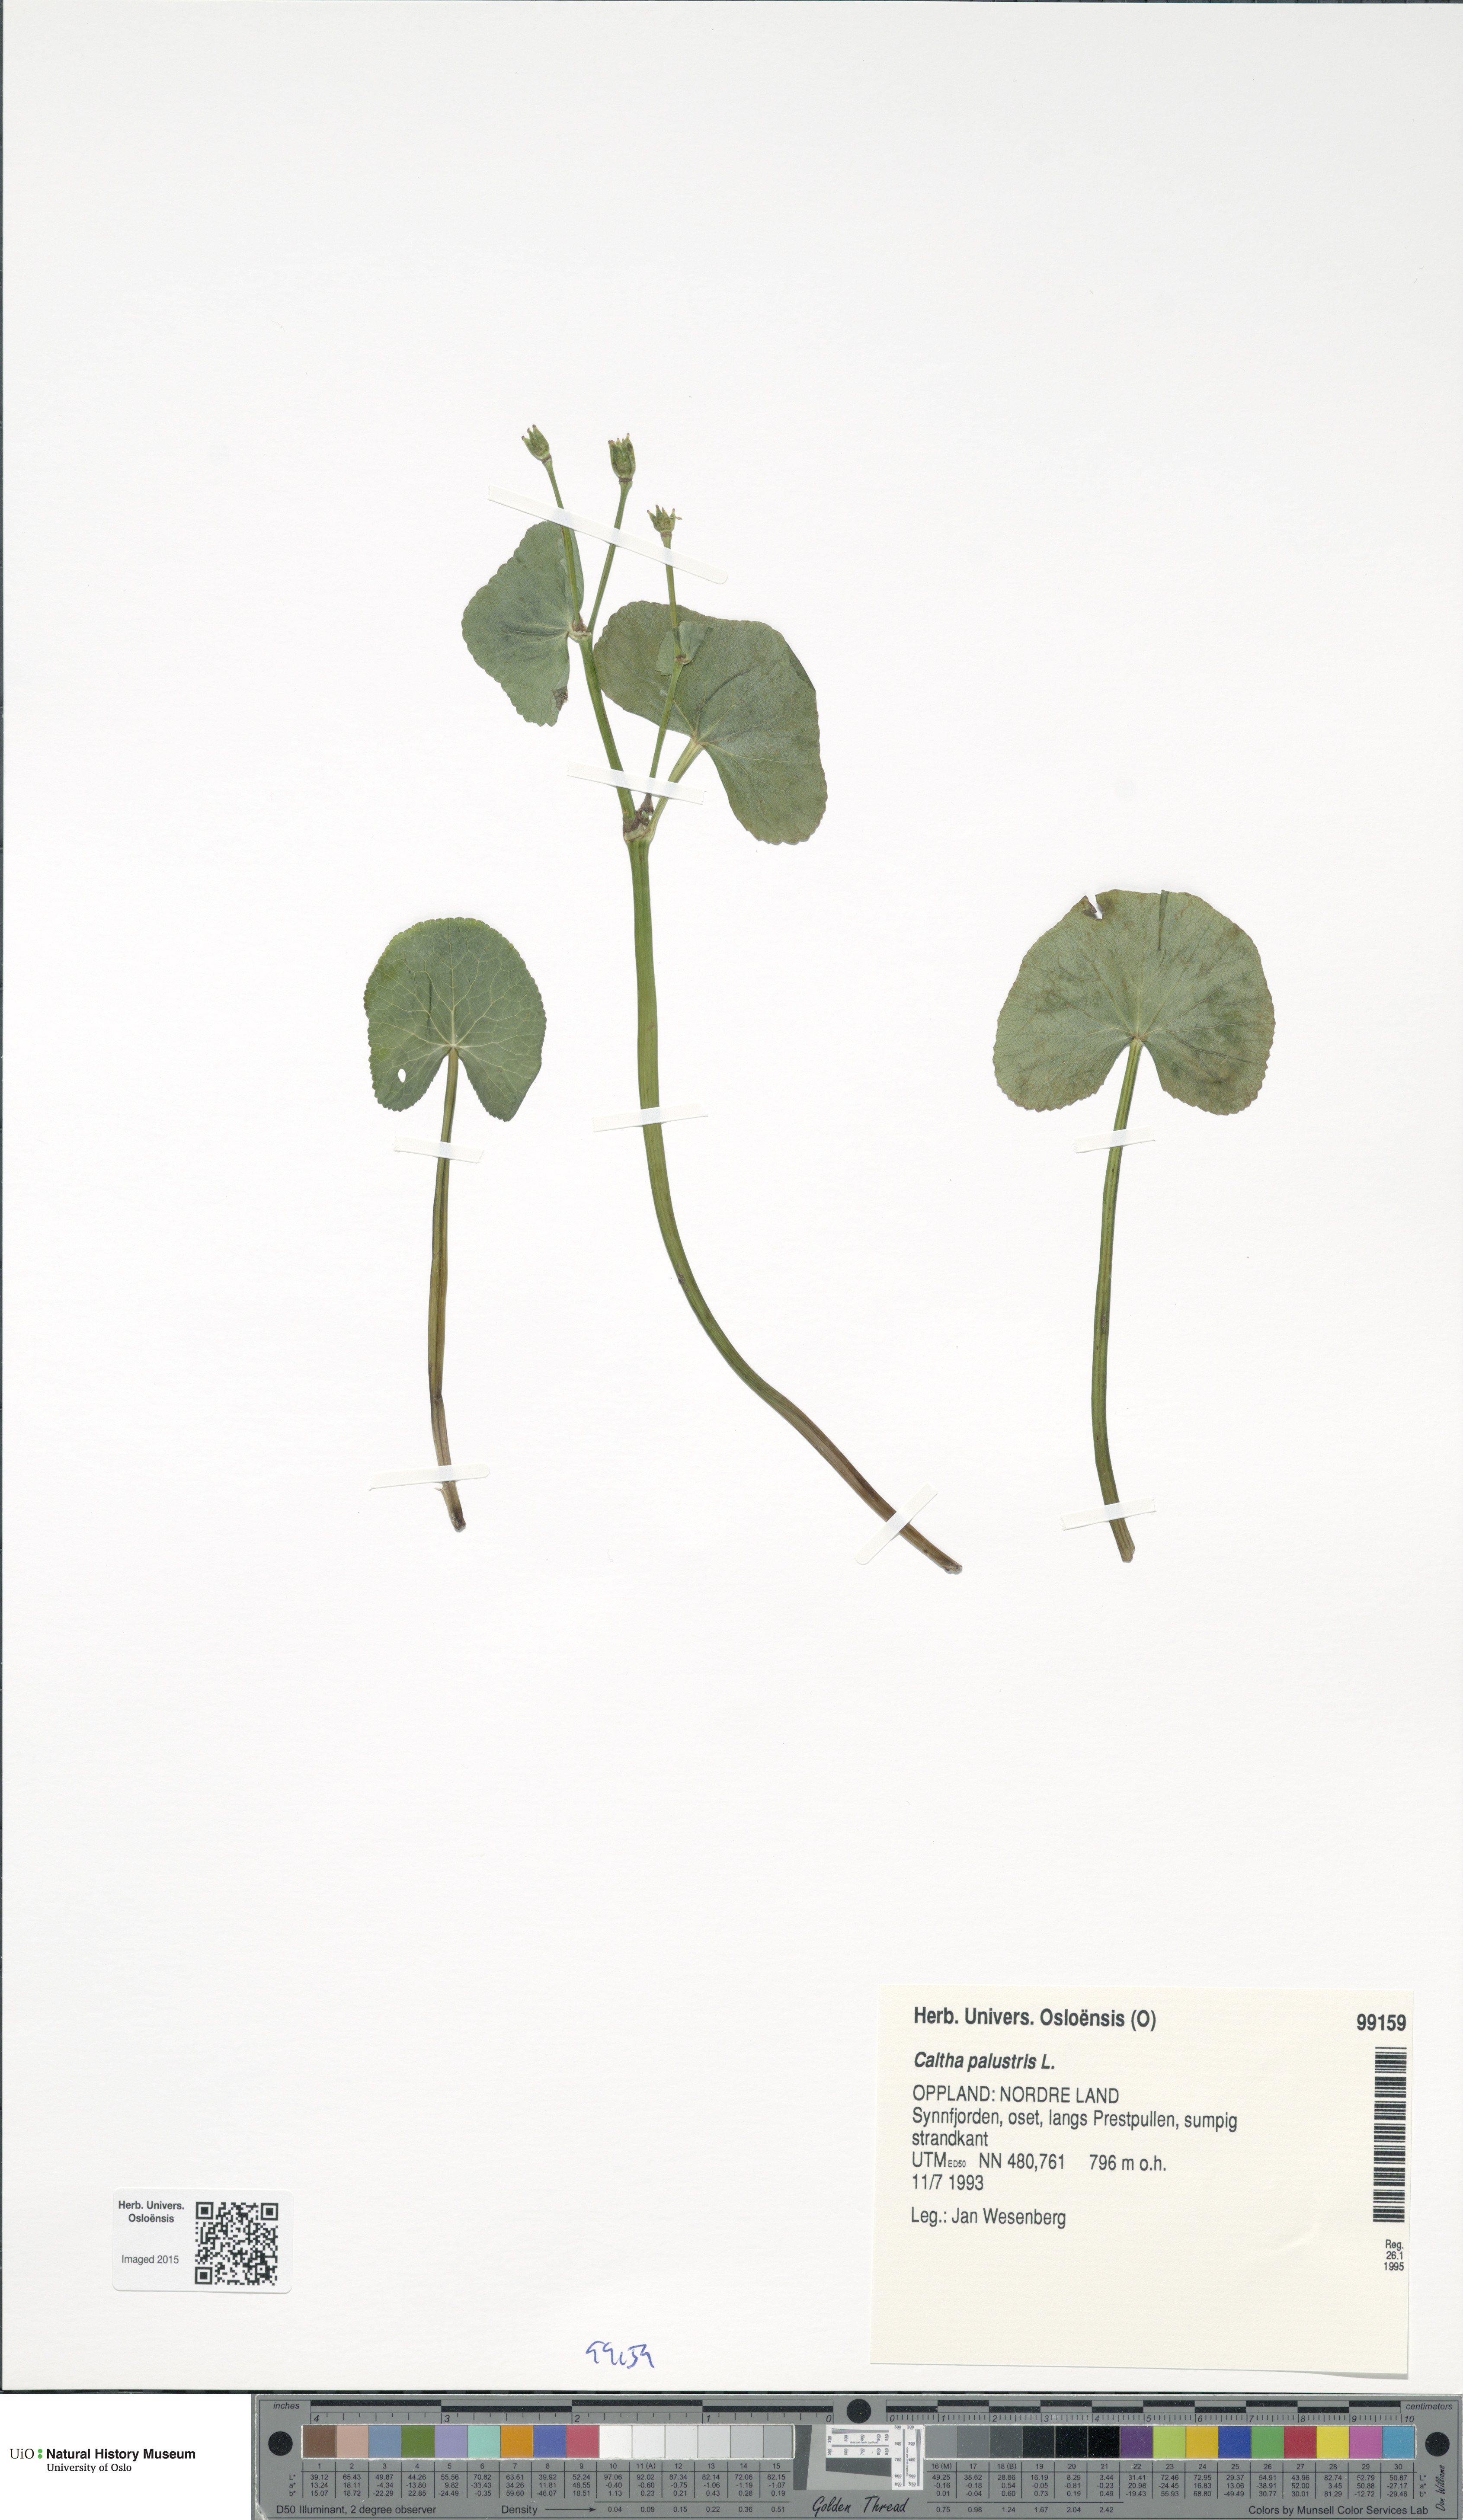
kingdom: Plantae
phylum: Tracheophyta
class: Magnoliopsida
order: Ranunculales
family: Ranunculaceae
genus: Caltha
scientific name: Caltha palustris
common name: Marsh marigold
